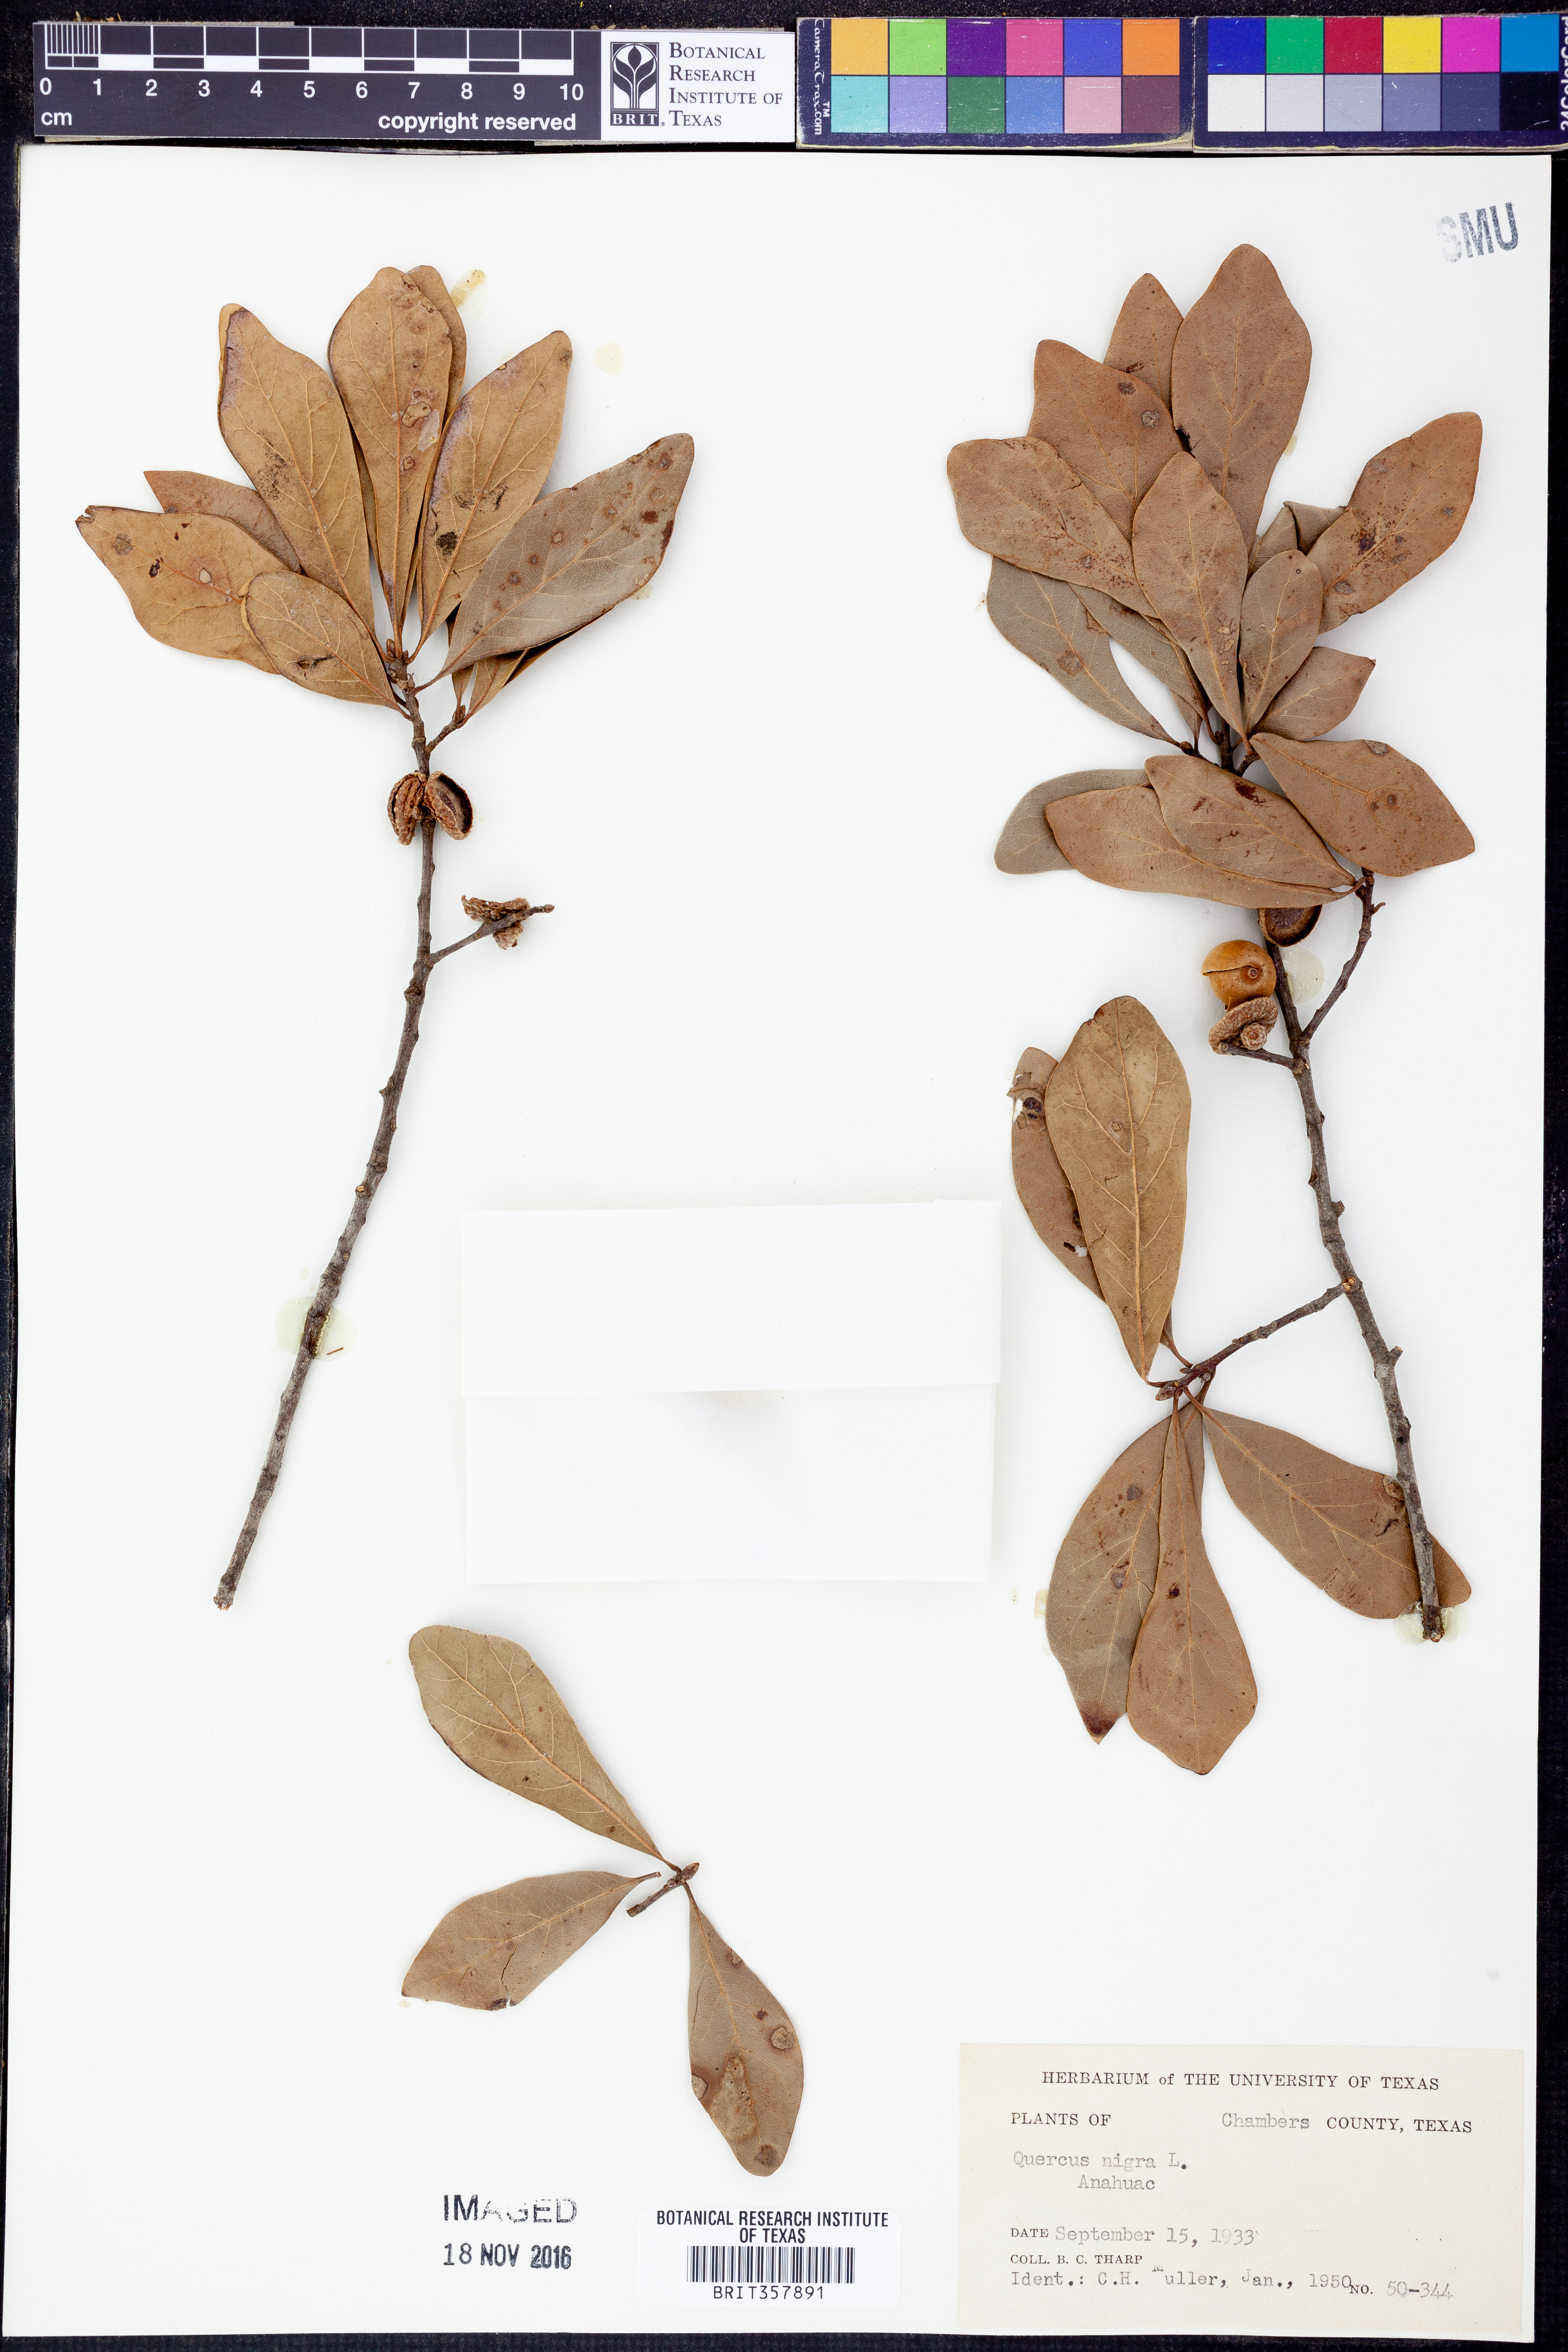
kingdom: Plantae
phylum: Tracheophyta
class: Magnoliopsida
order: Fagales
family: Fagaceae
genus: Quercus
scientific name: Quercus nigra
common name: Water oak
